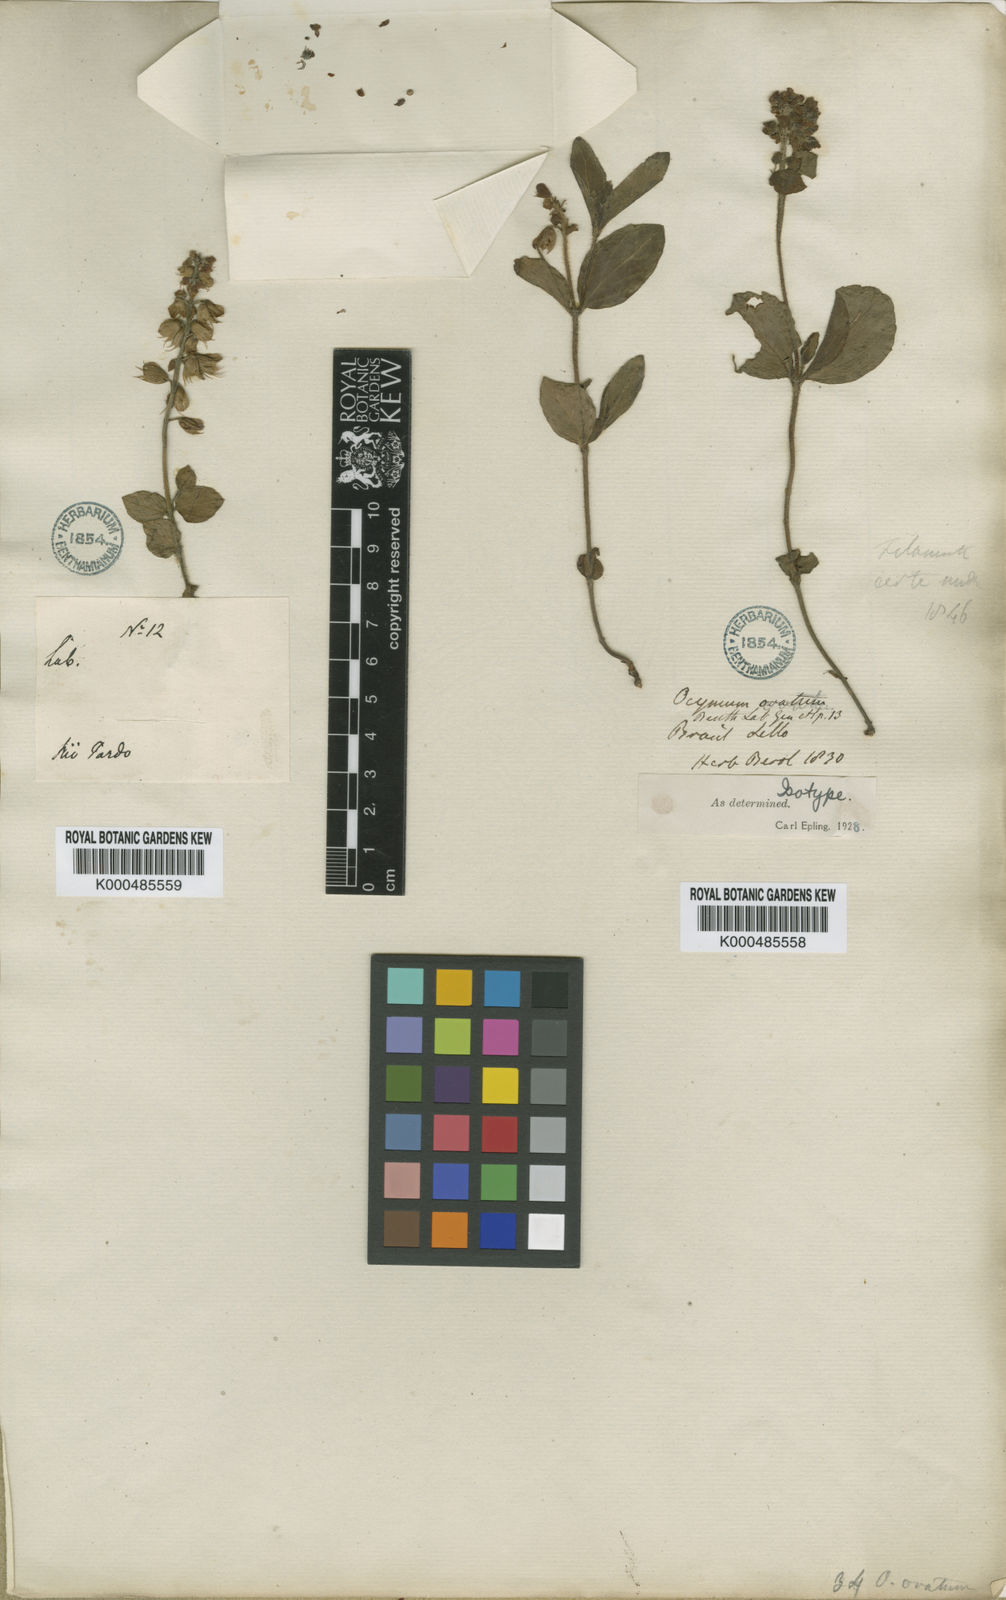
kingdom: Plantae
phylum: Tracheophyta
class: Magnoliopsida
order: Lamiales
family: Lamiaceae
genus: Ocimum
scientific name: Ocimum ovatum
